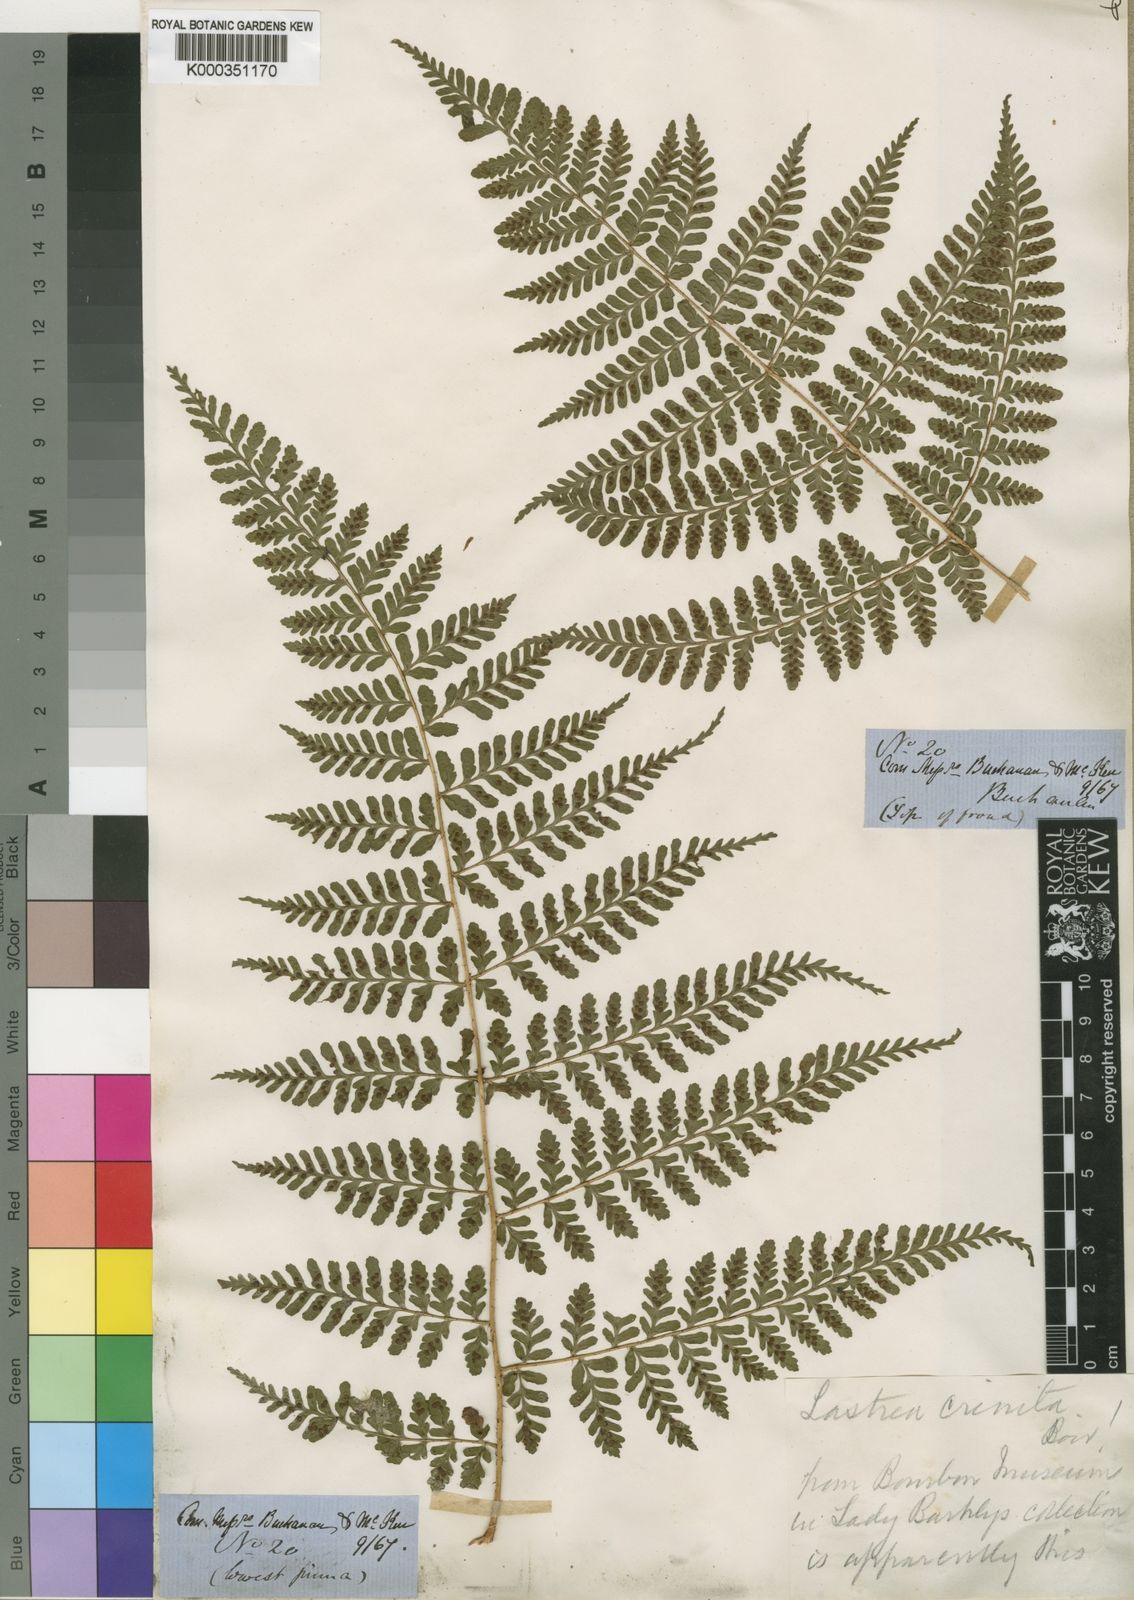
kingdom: Plantae
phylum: Tracheophyta
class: Polypodiopsida
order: Polypodiales
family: Dryopteridaceae
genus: Dryopteris
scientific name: Dryopteris squamiseta
